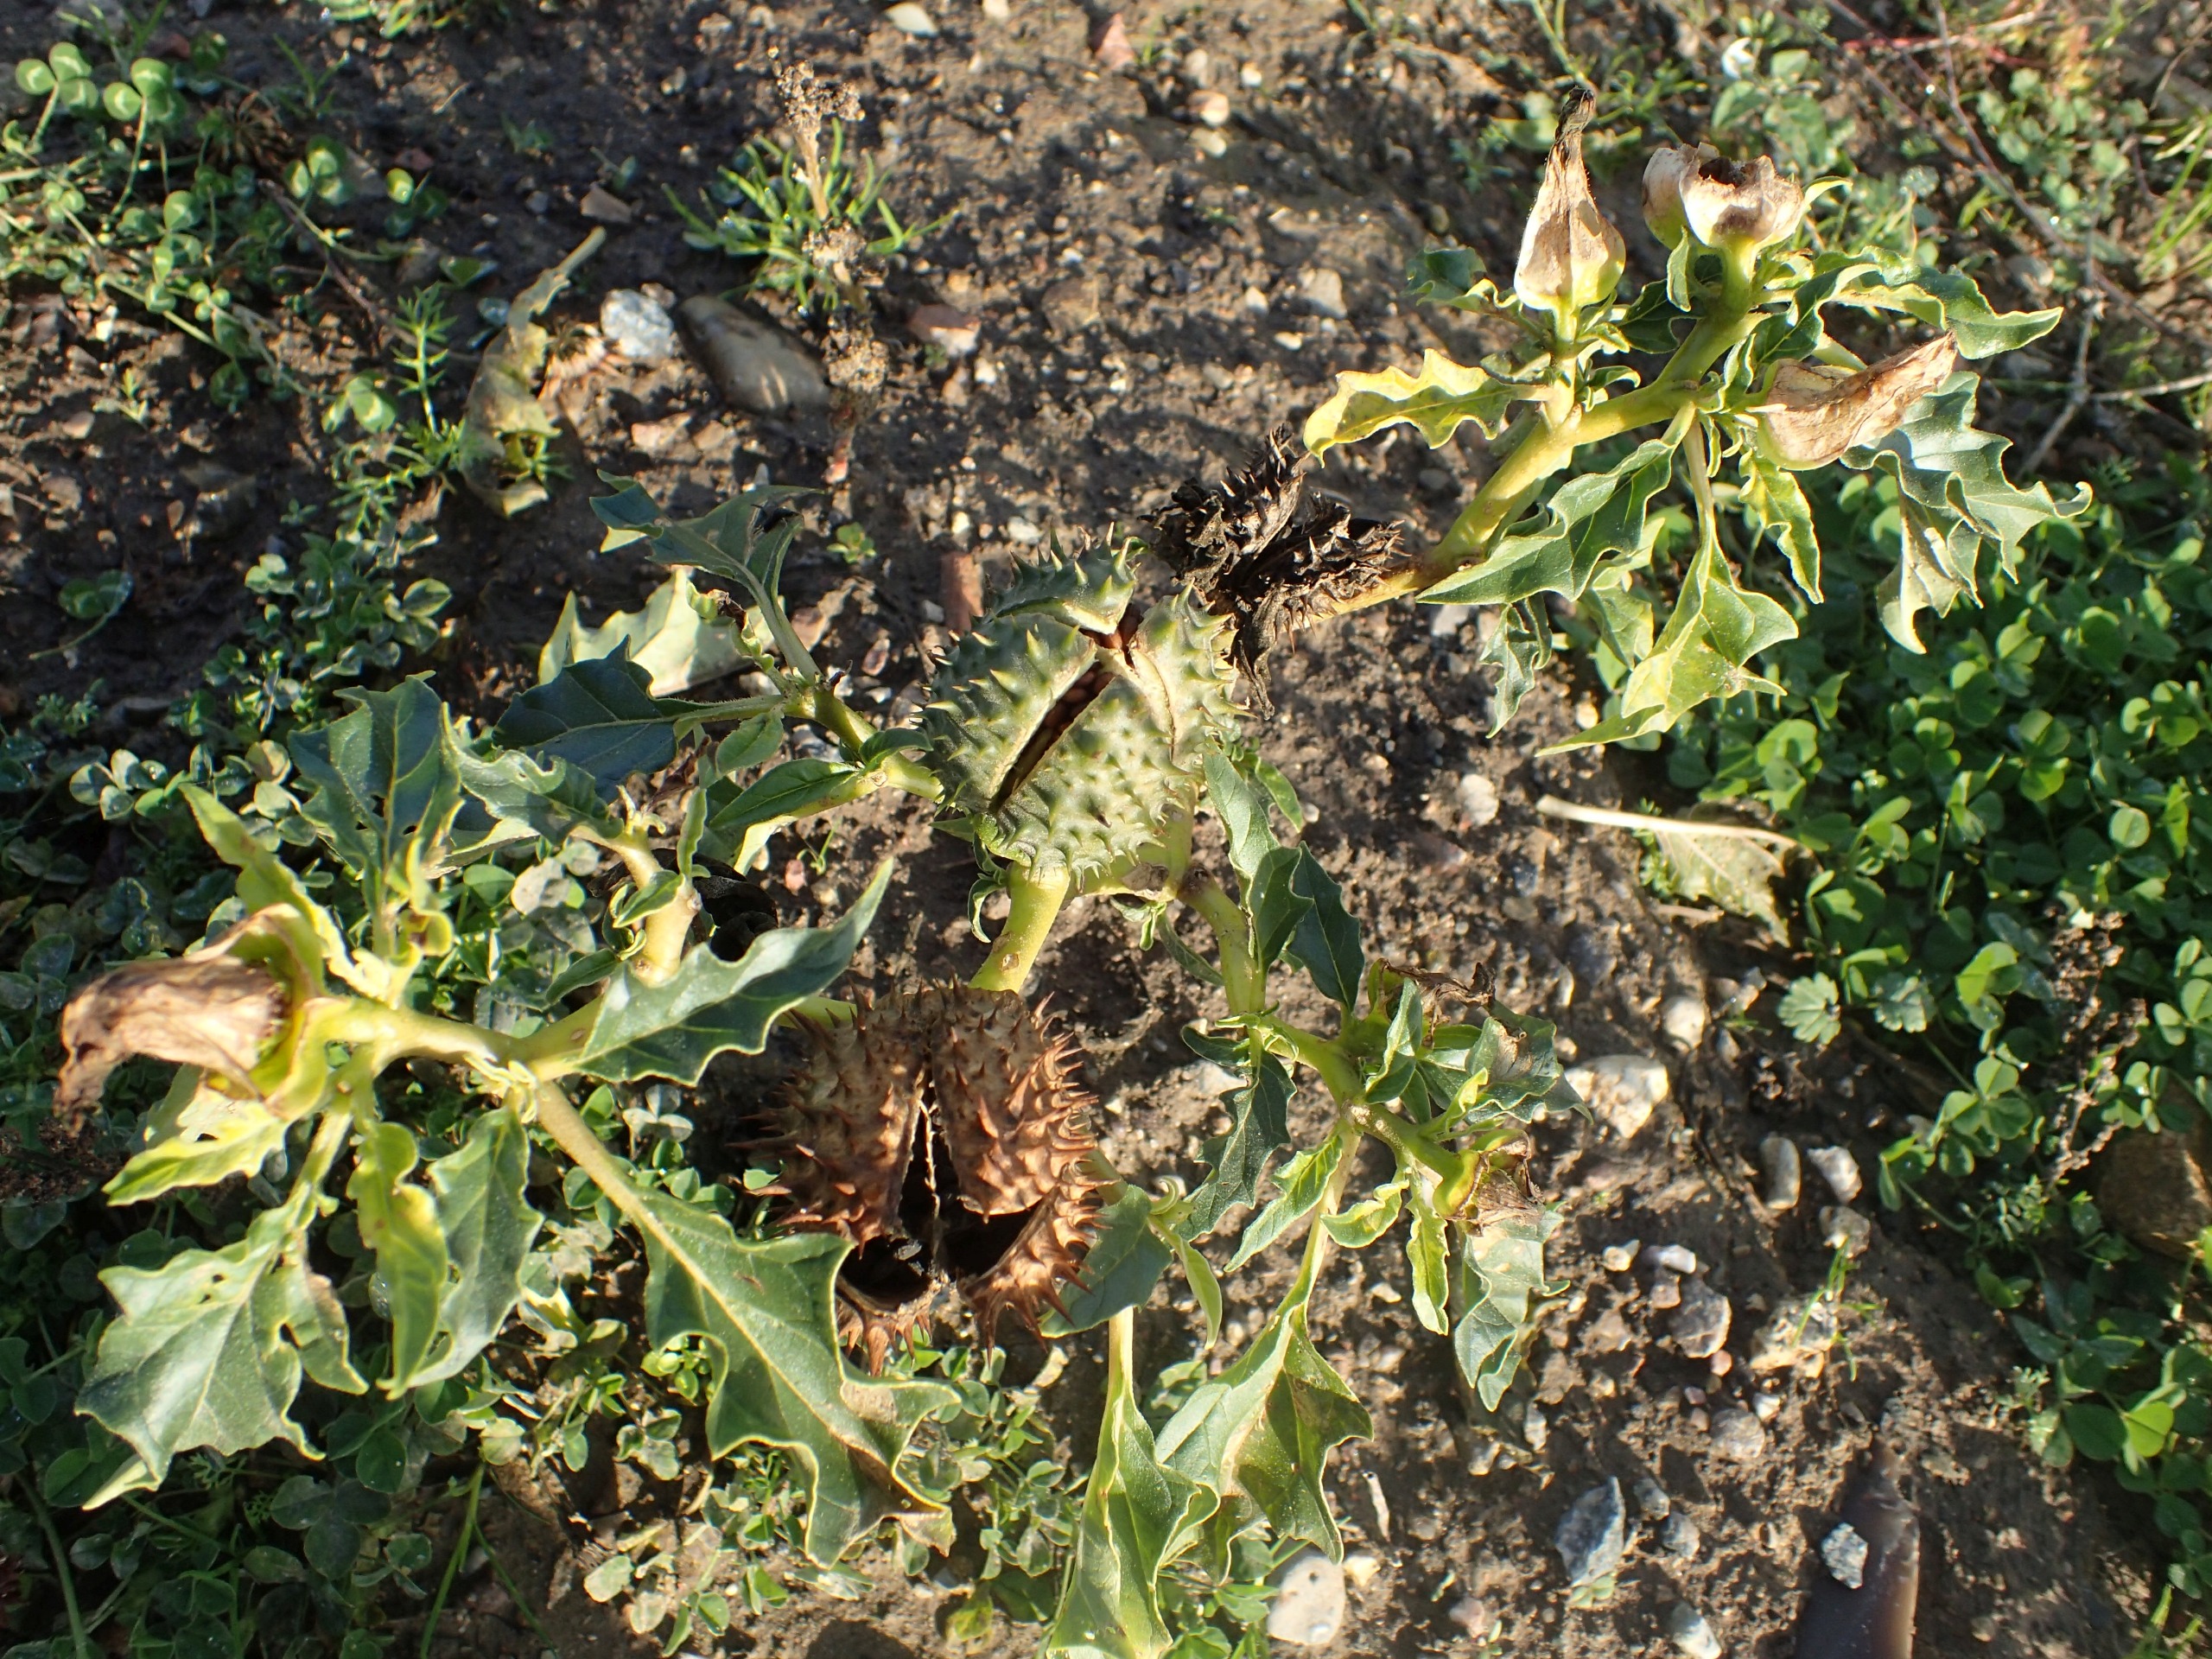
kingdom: Plantae
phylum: Tracheophyta
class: Magnoliopsida
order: Solanales
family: Solanaceae
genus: Datura
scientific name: Datura stramonium
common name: Pigæble
